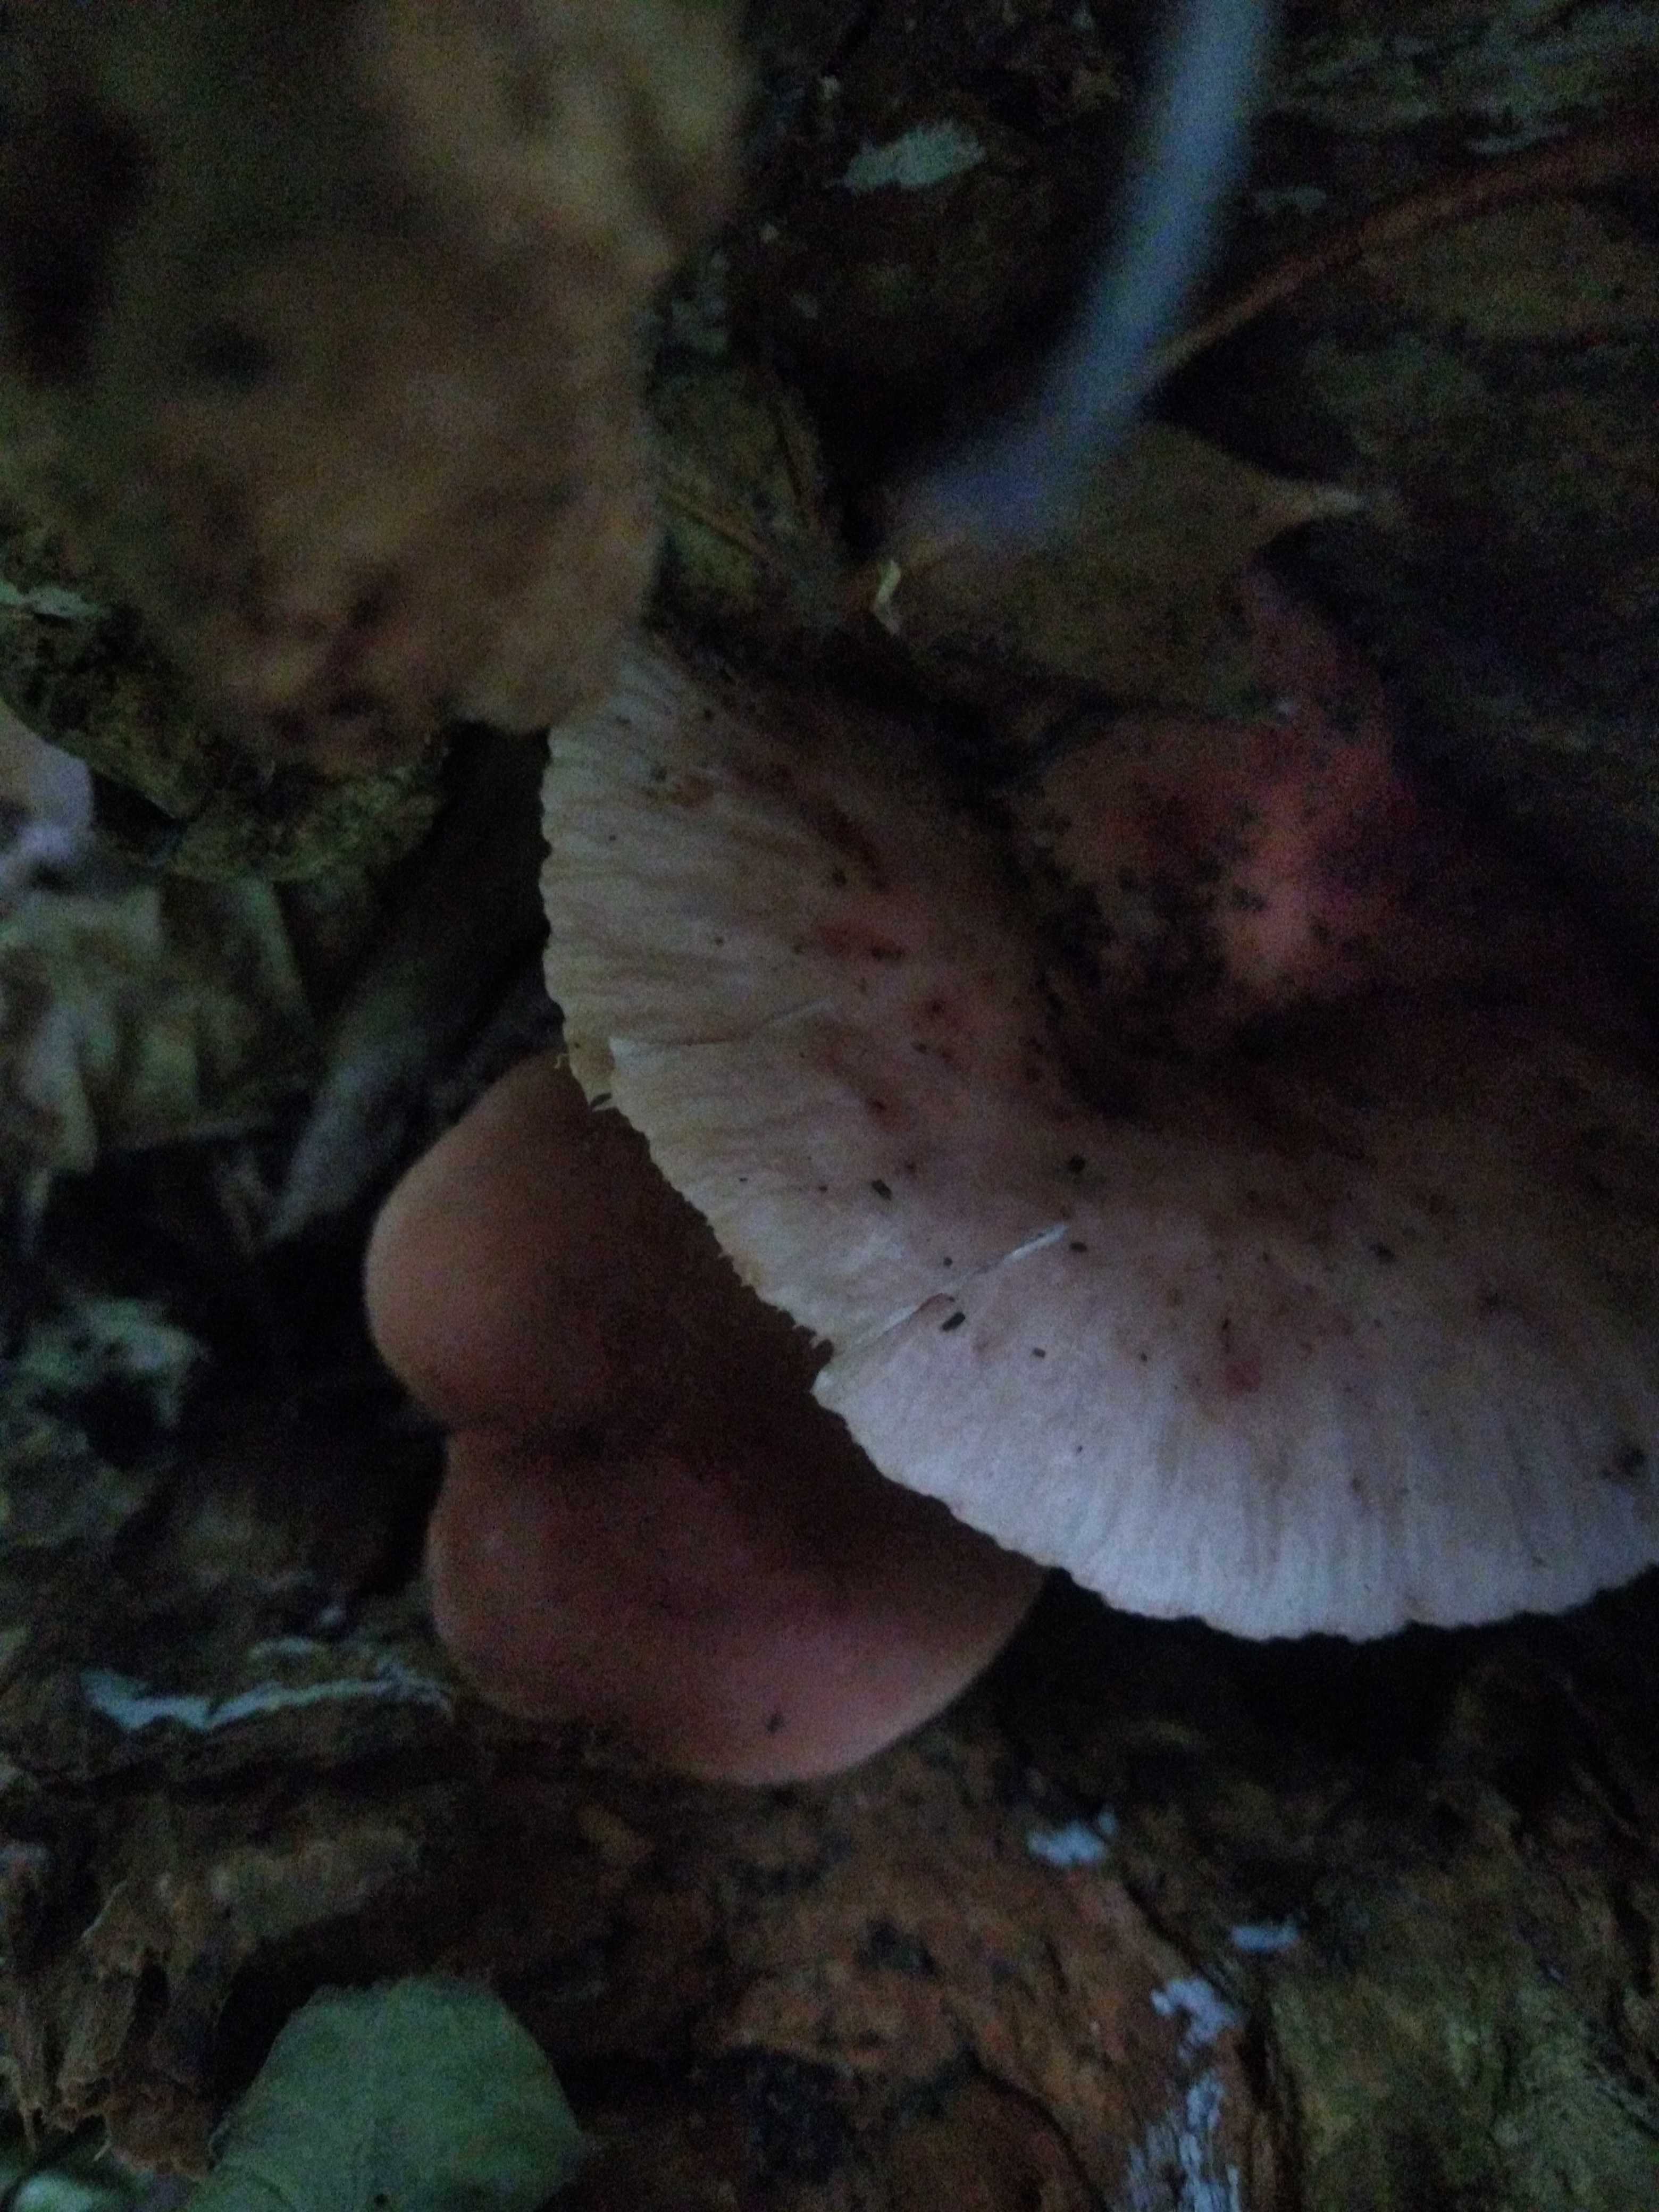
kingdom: Fungi
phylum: Basidiomycota
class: Agaricomycetes
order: Russulales
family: Russulaceae
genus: Lactarius
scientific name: Lactarius fulvissimus
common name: ræve-mælkehat
